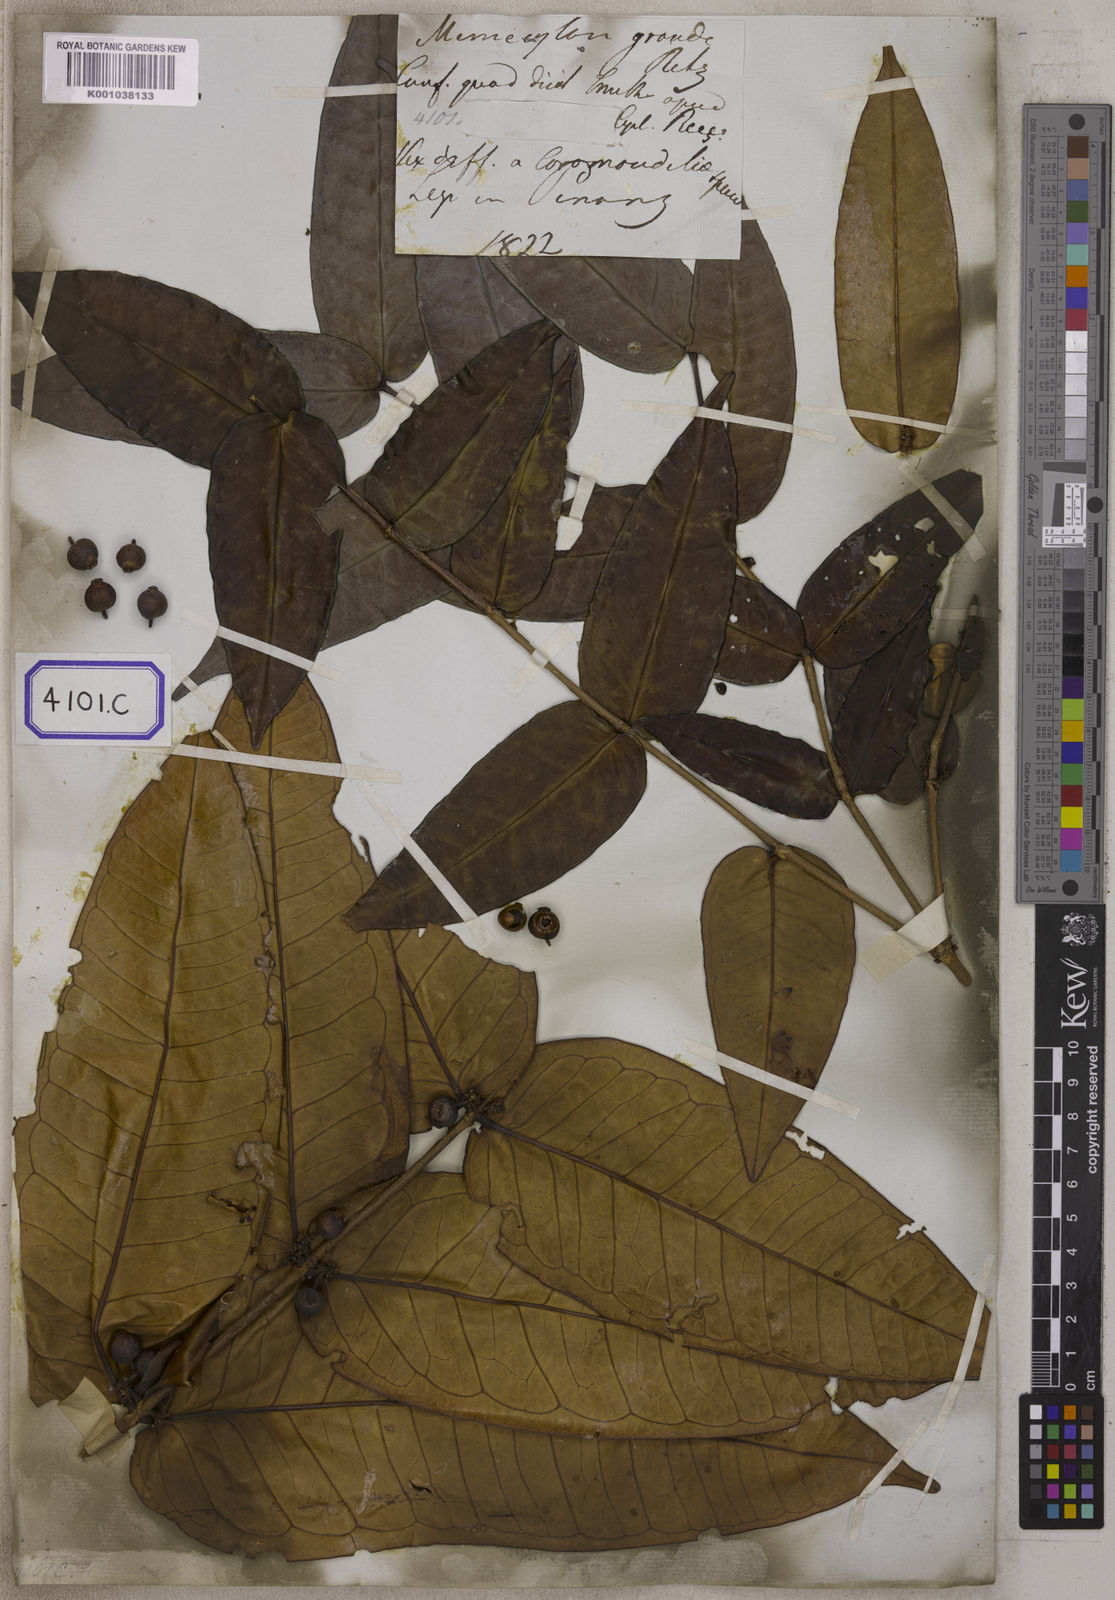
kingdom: Plantae
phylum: Tracheophyta
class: Magnoliopsida
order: Myrtales
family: Melastomataceae
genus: Memecylon
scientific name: Memecylon wallichii
